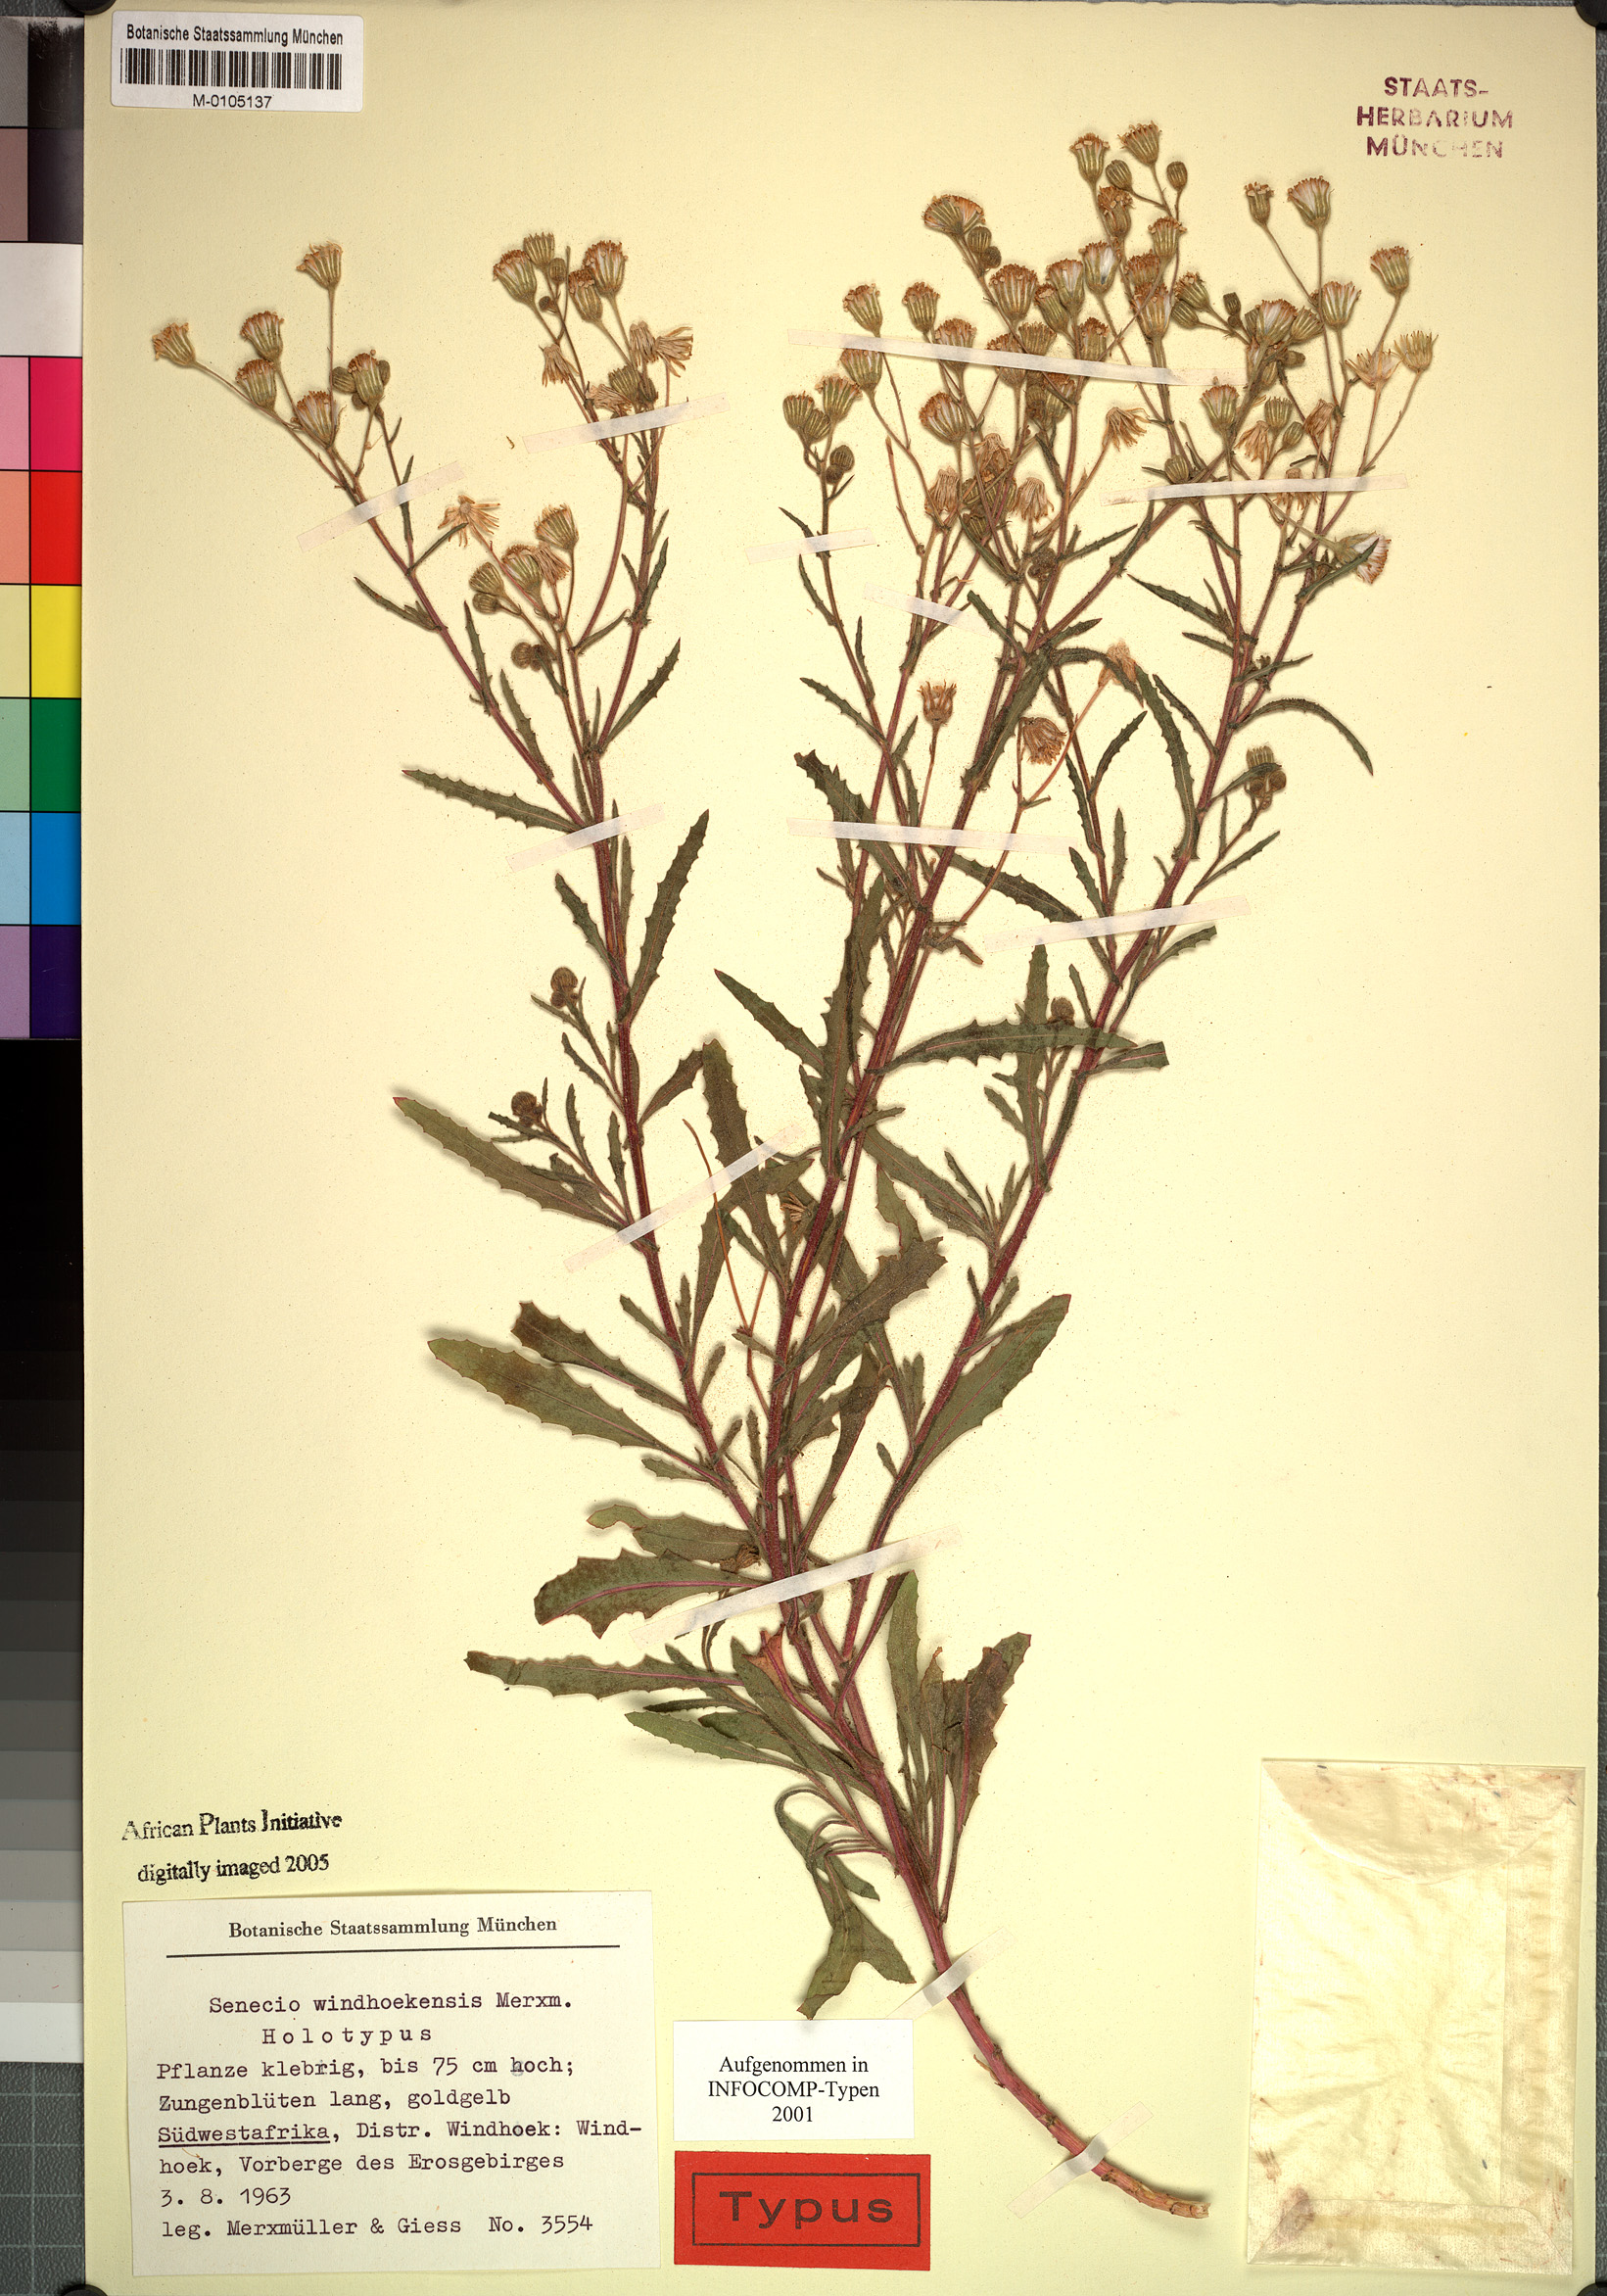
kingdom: Plantae
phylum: Tracheophyta
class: Magnoliopsida
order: Asterales
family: Asteraceae
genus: Senecio
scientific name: Senecio windhoekensis
